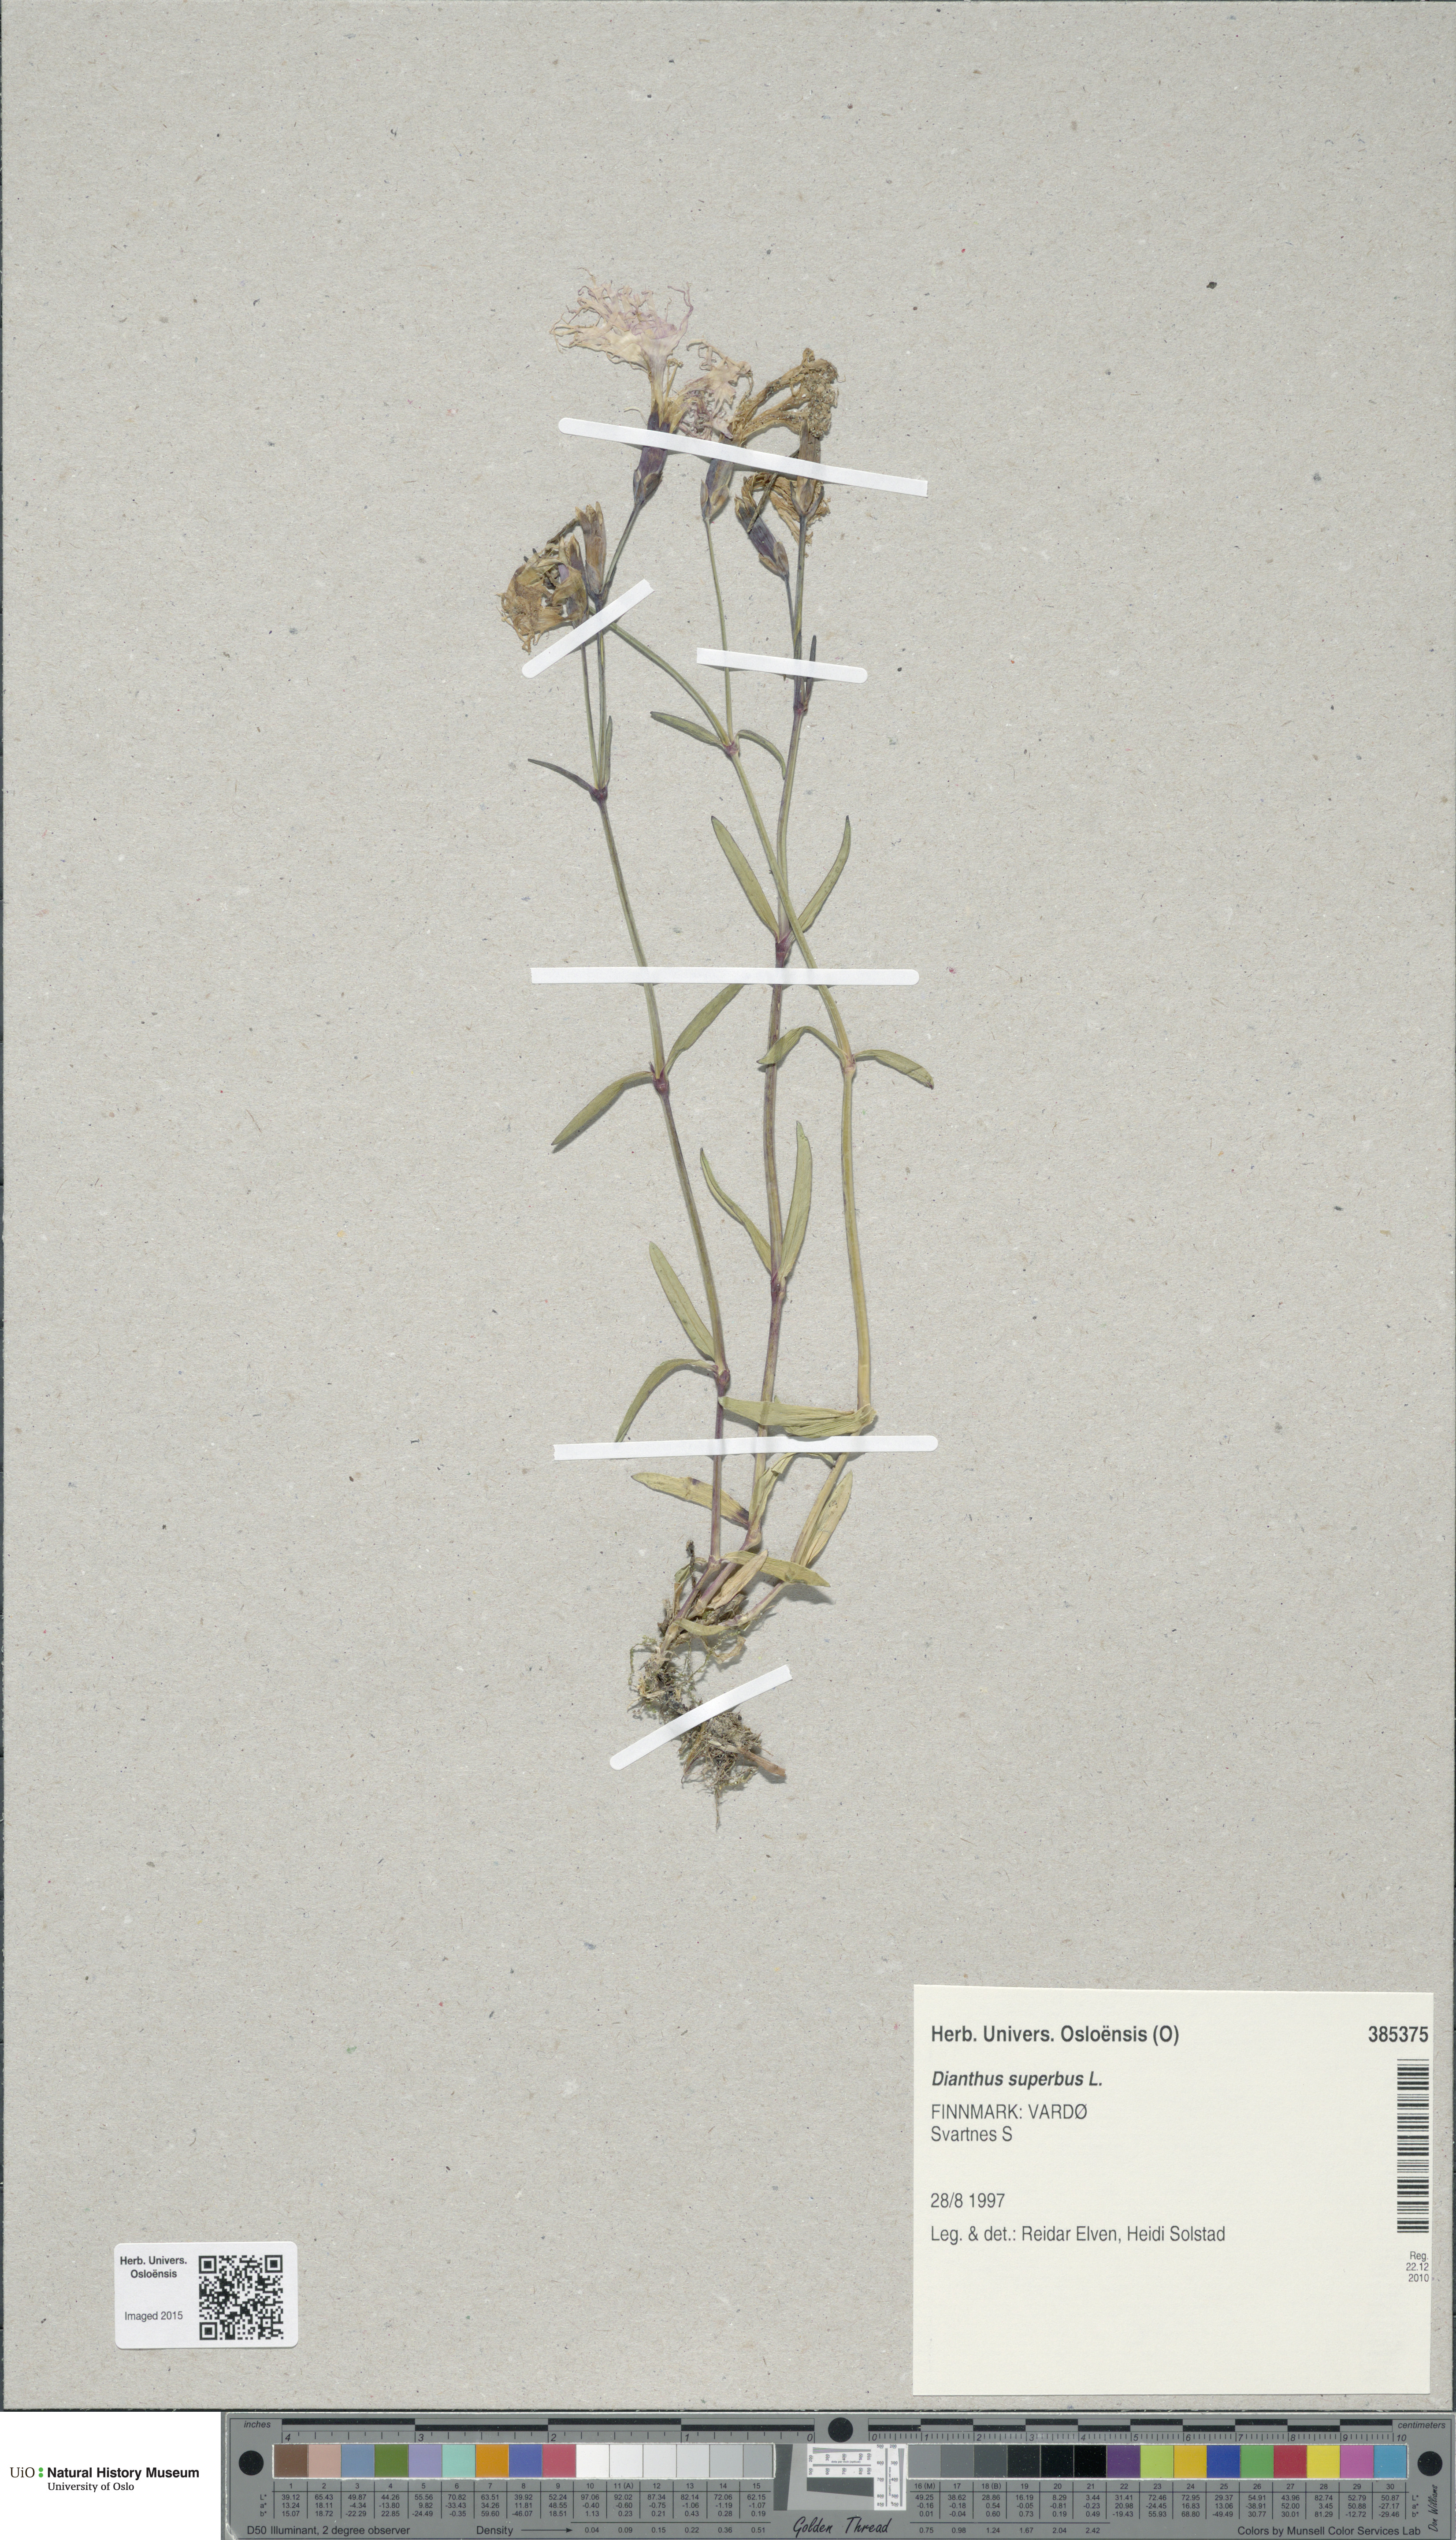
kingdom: Plantae
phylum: Tracheophyta
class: Magnoliopsida
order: Caryophyllales
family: Caryophyllaceae
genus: Dianthus
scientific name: Dianthus superbus
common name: Fringed pink
